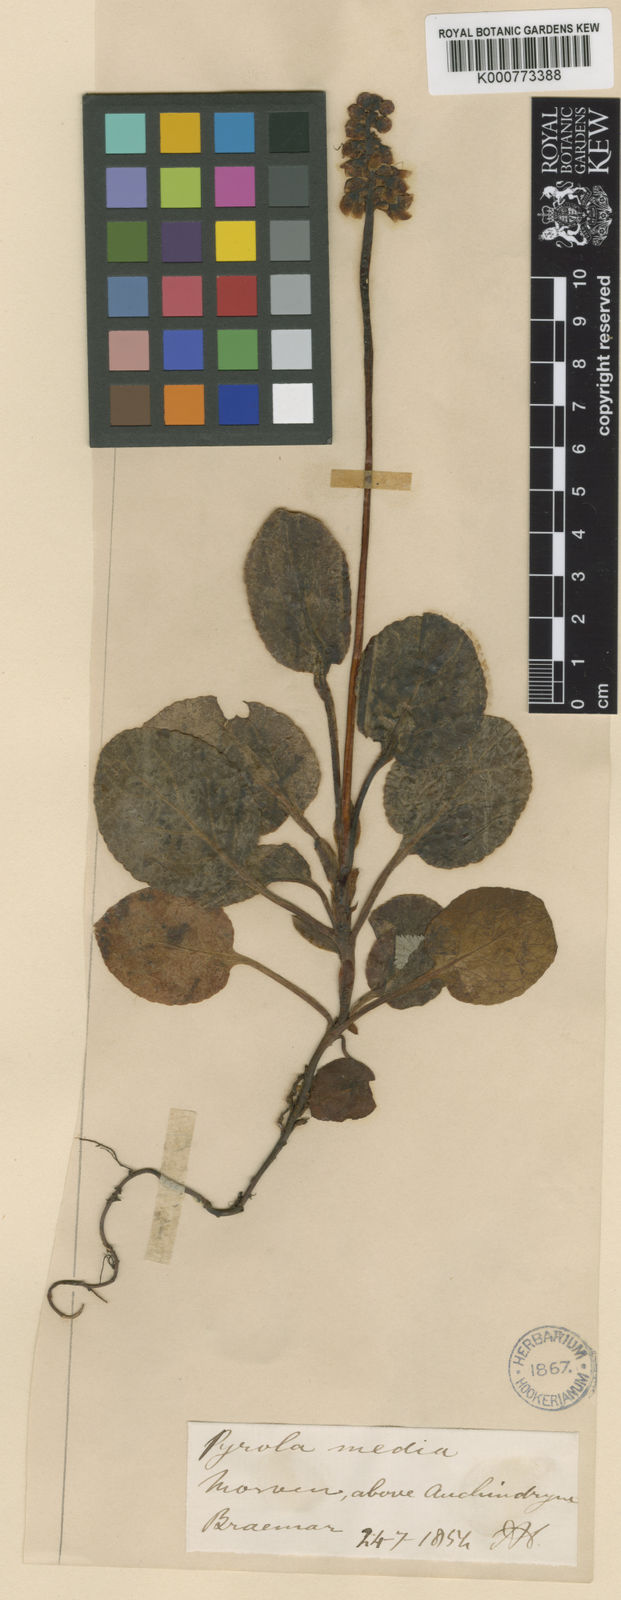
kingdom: Plantae
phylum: Tracheophyta
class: Magnoliopsida
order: Ericales
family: Ericaceae
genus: Pyrola
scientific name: Pyrola media
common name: Intermediate wintergreen
